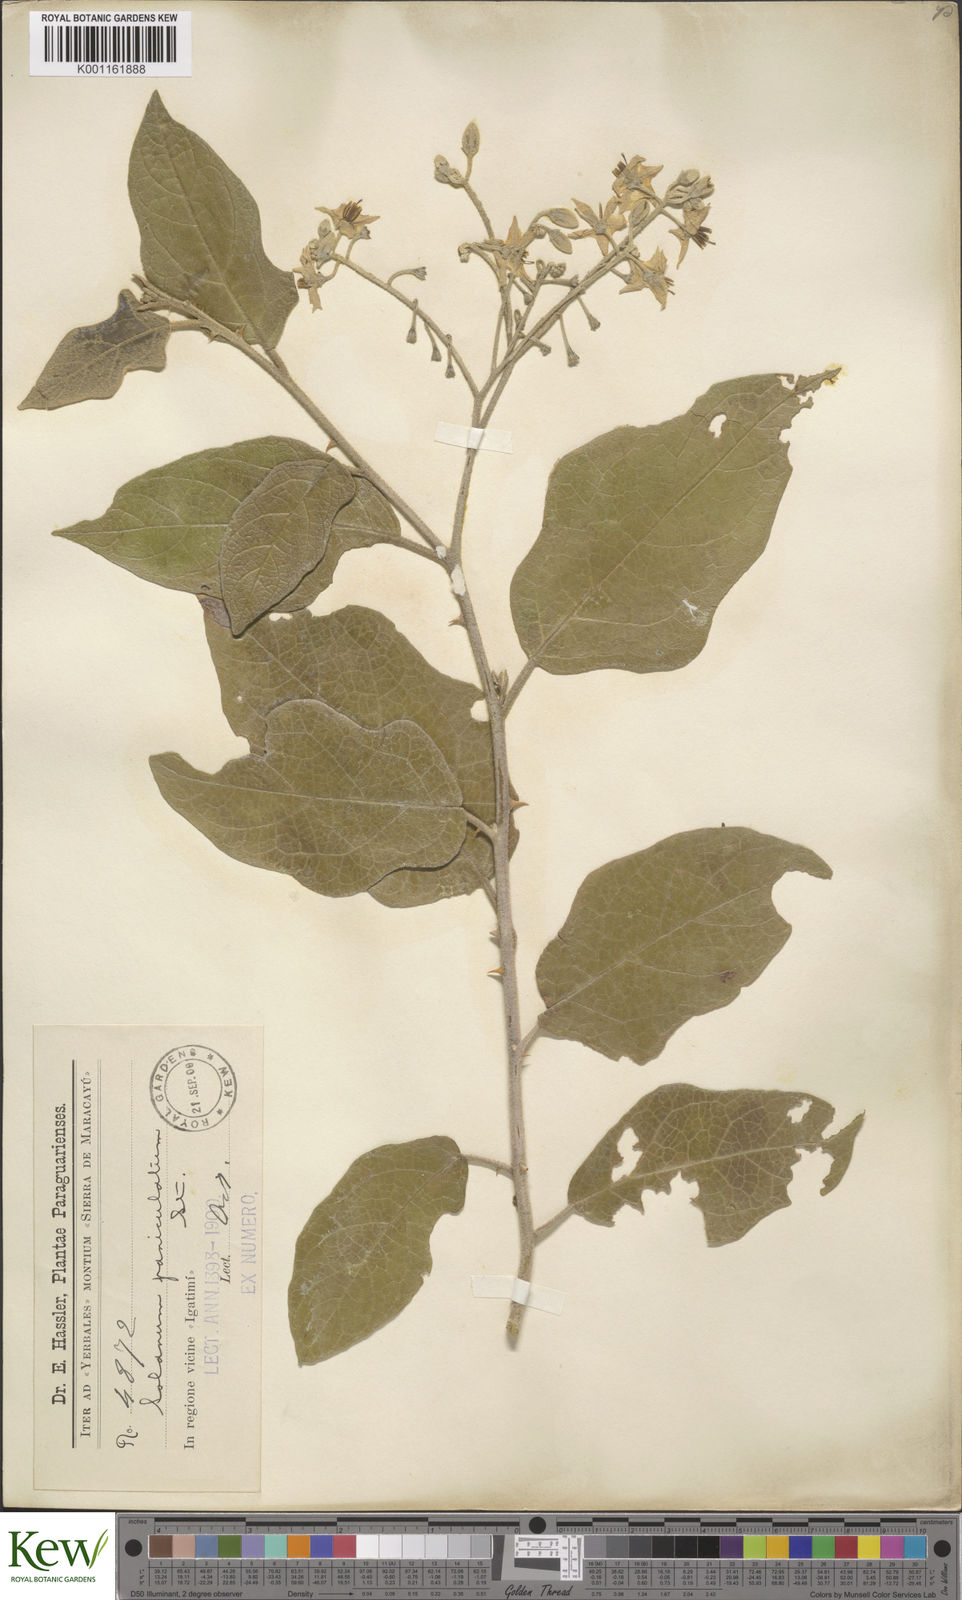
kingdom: Plantae
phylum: Tracheophyta
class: Magnoliopsida
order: Solanales
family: Solanaceae
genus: Solanum
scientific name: Solanum paniculatum
